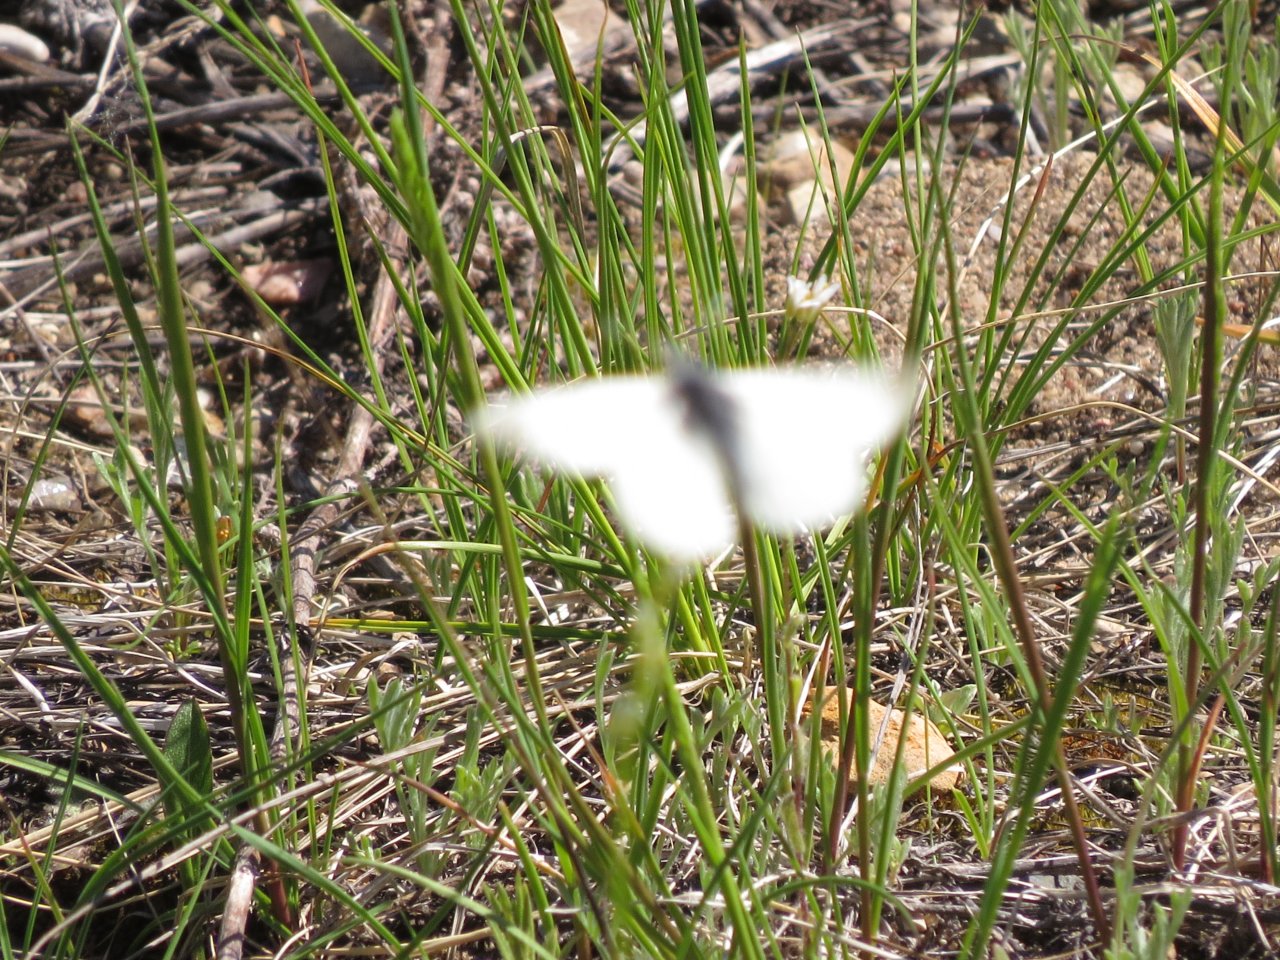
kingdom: Animalia
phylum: Arthropoda
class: Insecta
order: Lepidoptera
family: Pieridae
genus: Euchloe
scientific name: Euchloe ausonides
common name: Large Marble
